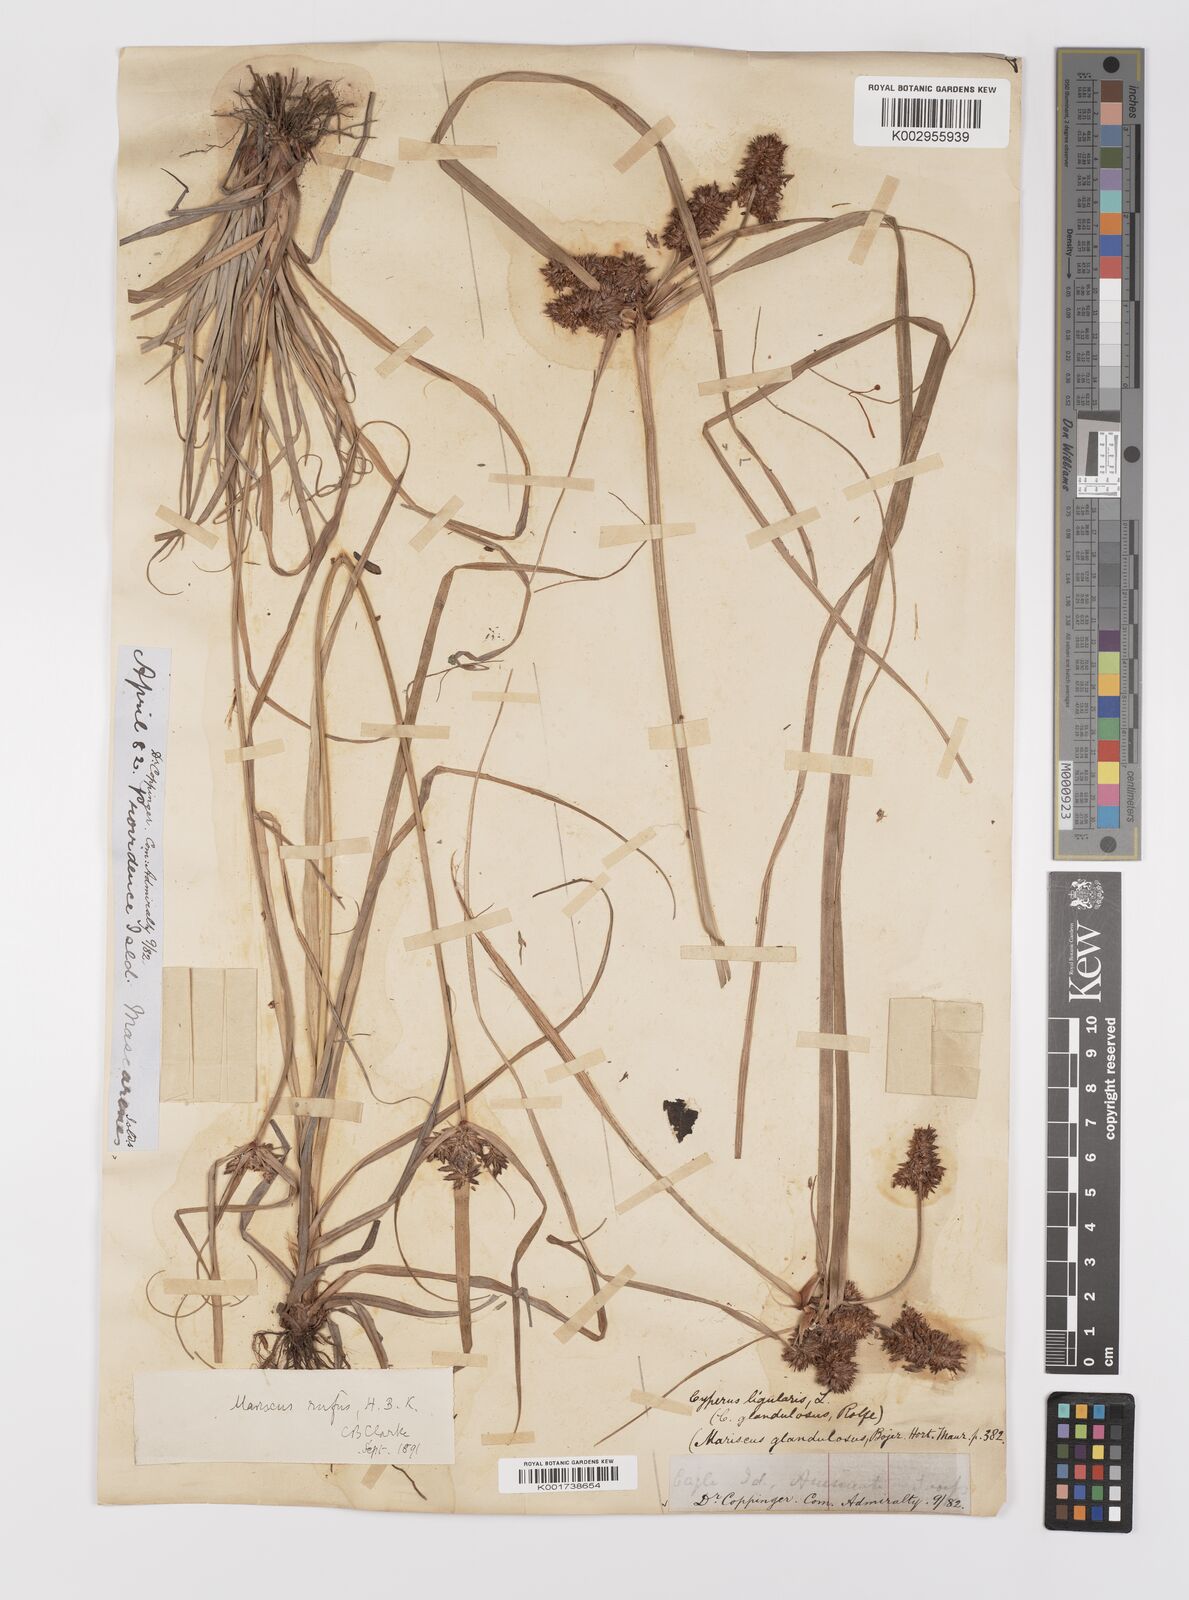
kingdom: Plantae
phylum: Tracheophyta
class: Liliopsida
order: Poales
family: Cyperaceae
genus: Cyperus
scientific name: Cyperus ligularis
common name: Swamp flat sedge
